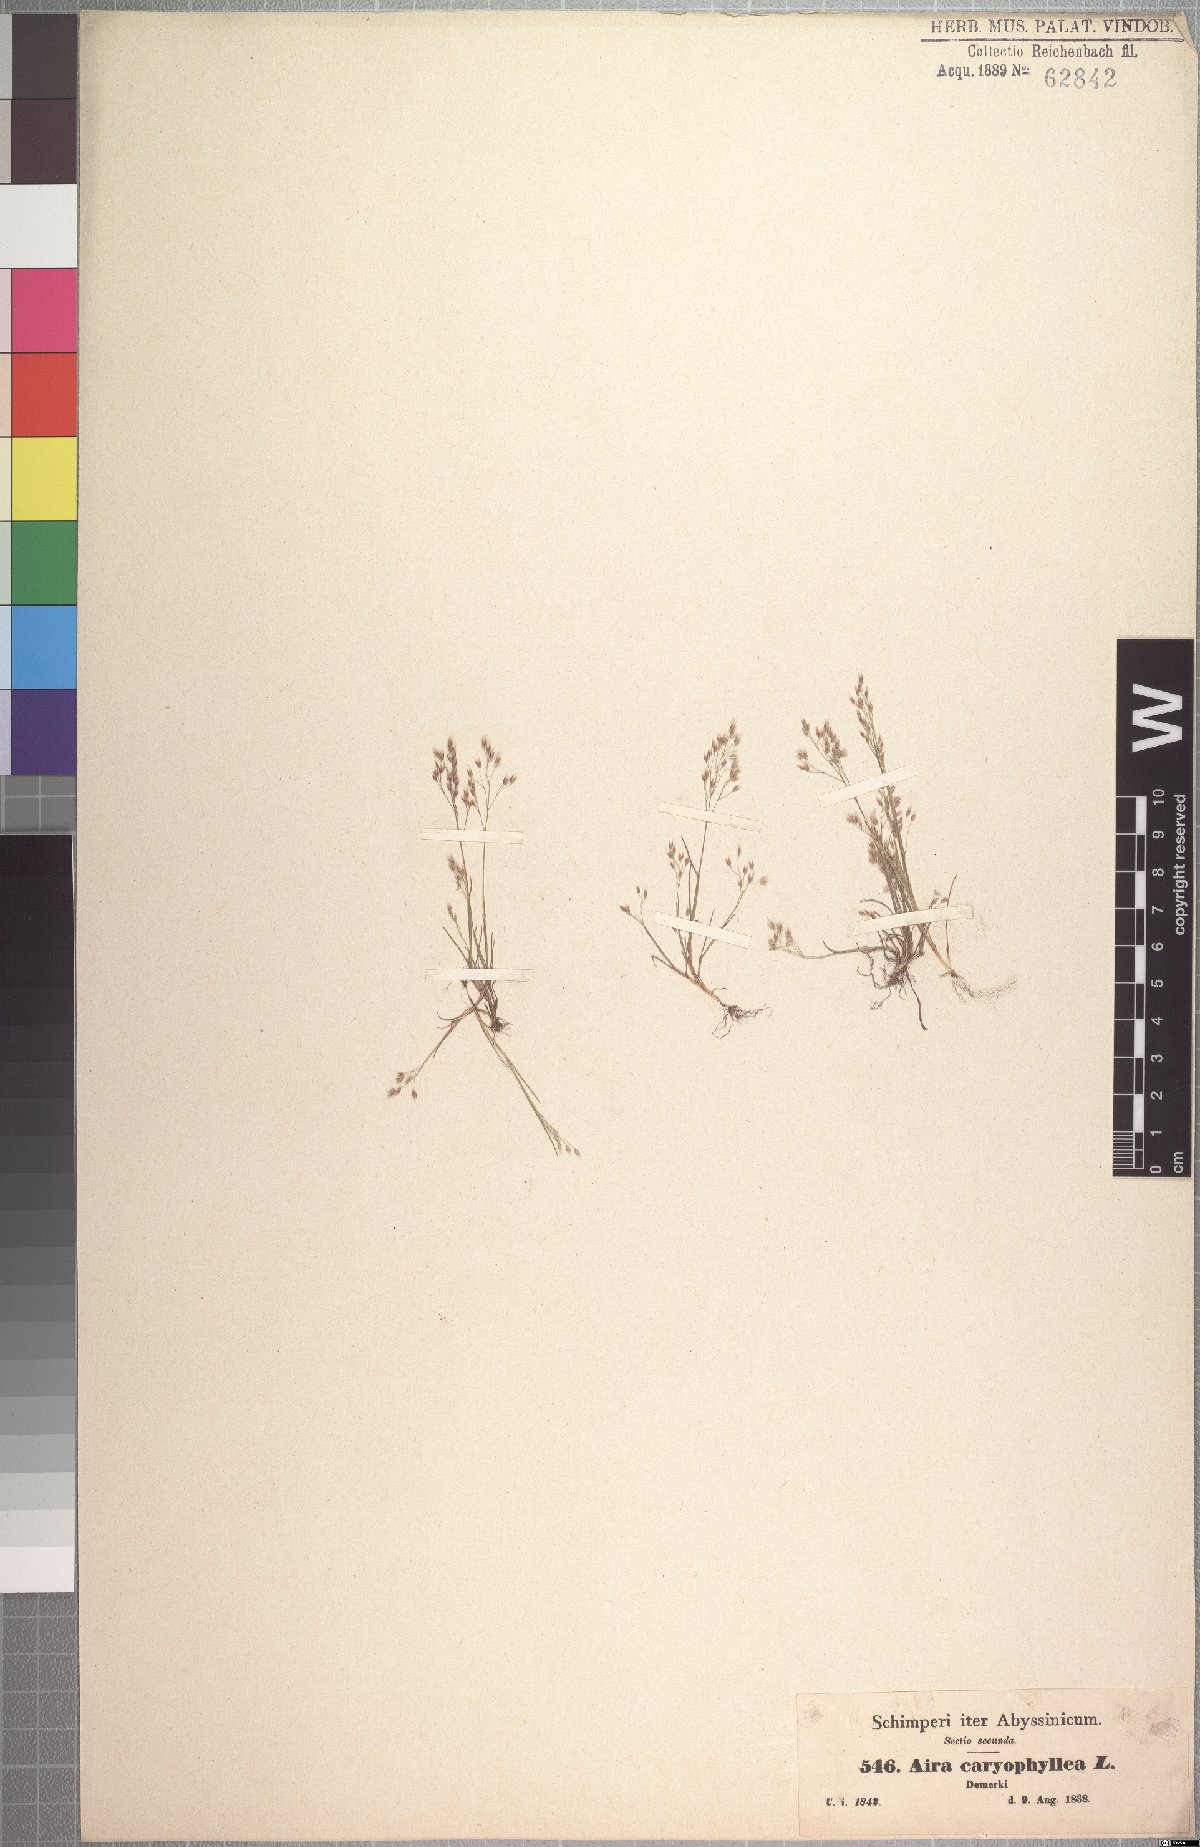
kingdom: Plantae
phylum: Tracheophyta
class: Liliopsida
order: Poales
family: Poaceae
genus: Aira
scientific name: Aira caryophyllea
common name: Silver hairgrass
